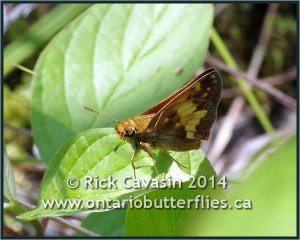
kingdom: Animalia
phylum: Arthropoda
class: Insecta
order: Lepidoptera
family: Hesperiidae
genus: Lon
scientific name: Lon hobomok
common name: Hobomok Skipper
